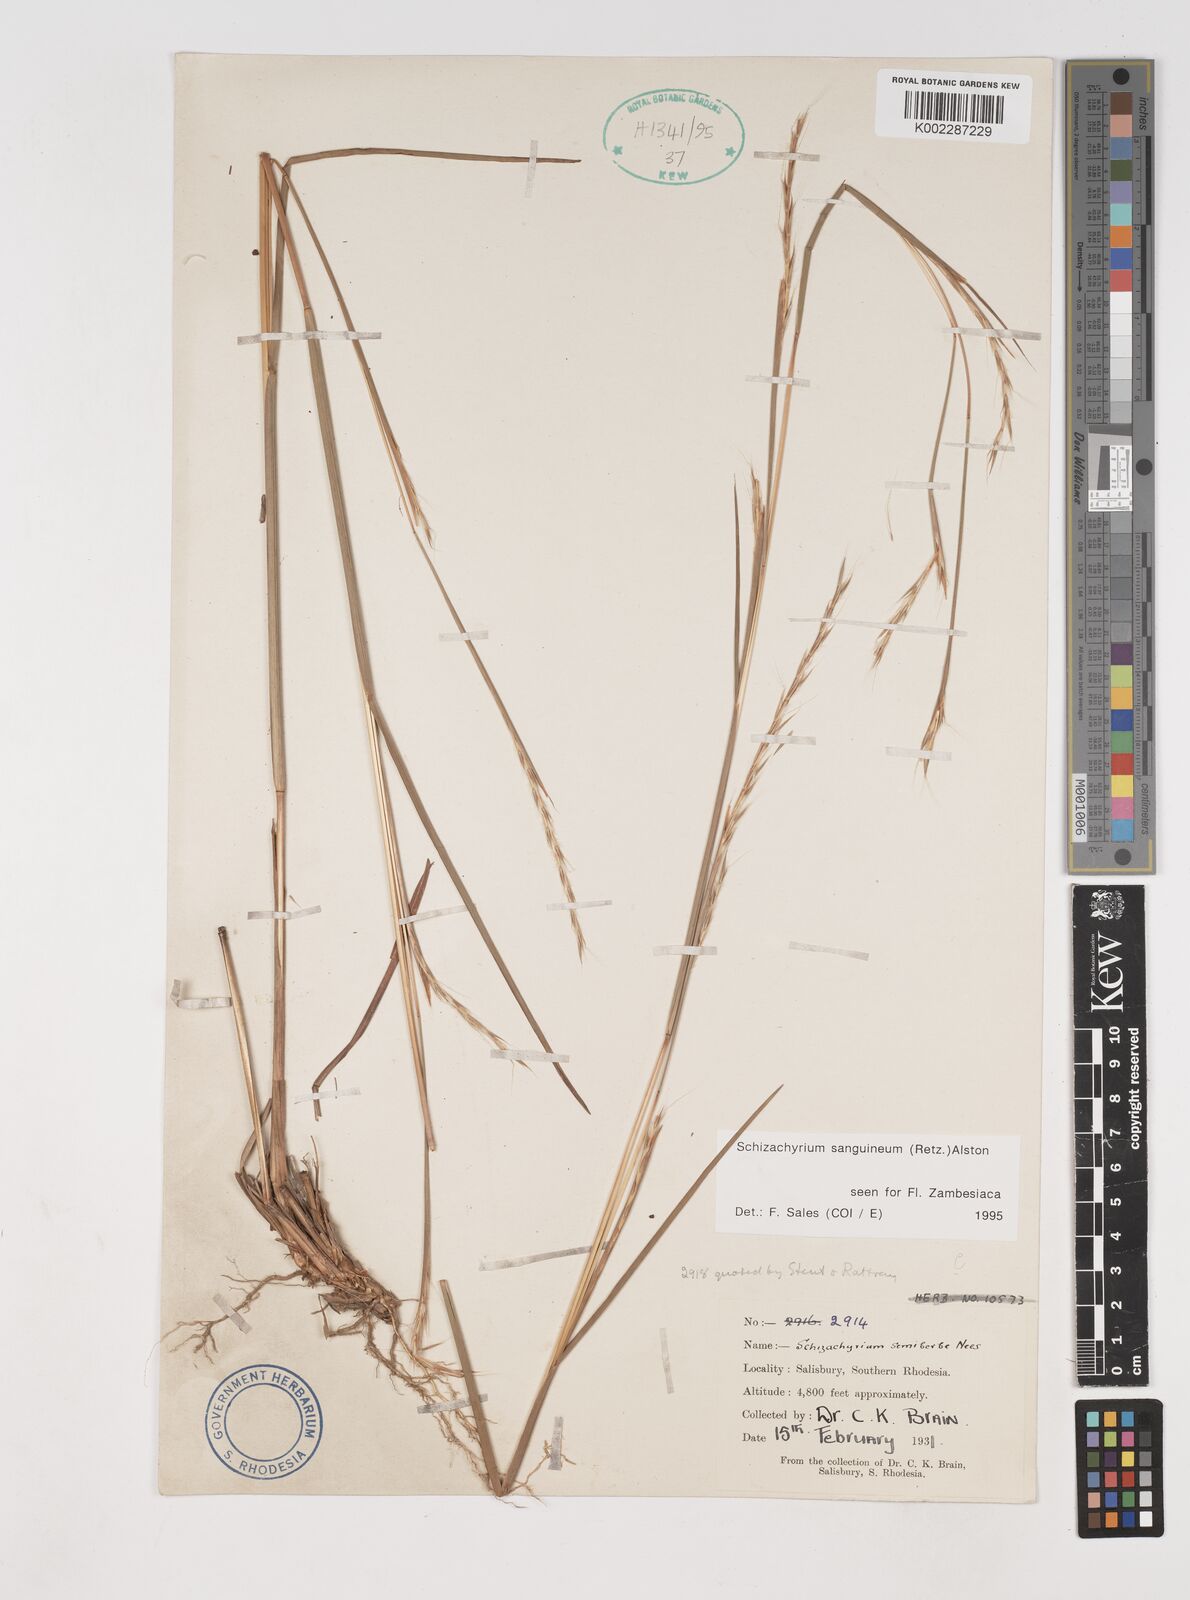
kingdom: Plantae
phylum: Tracheophyta
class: Liliopsida
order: Poales
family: Poaceae
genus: Schizachyrium
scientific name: Schizachyrium sanguineum
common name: Crimson bluestem
